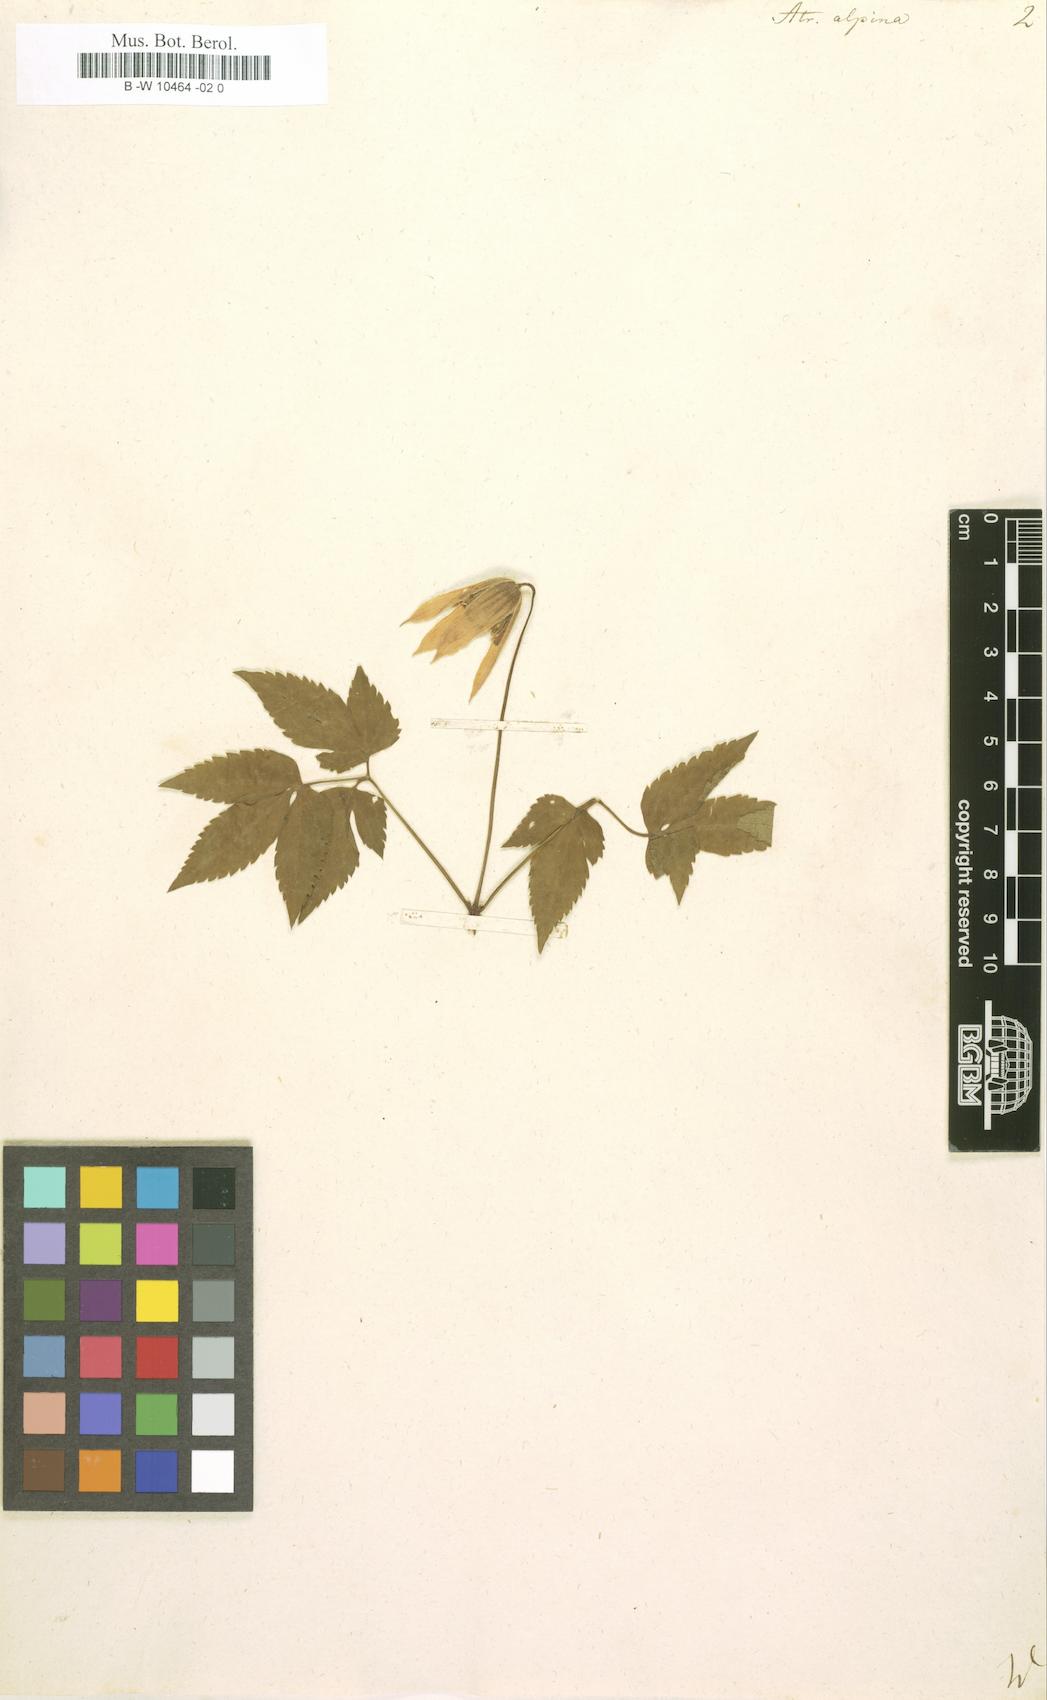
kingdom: Plantae
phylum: Tracheophyta
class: Magnoliopsida
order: Ranunculales
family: Ranunculaceae
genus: Clematis
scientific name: Clematis alpina
